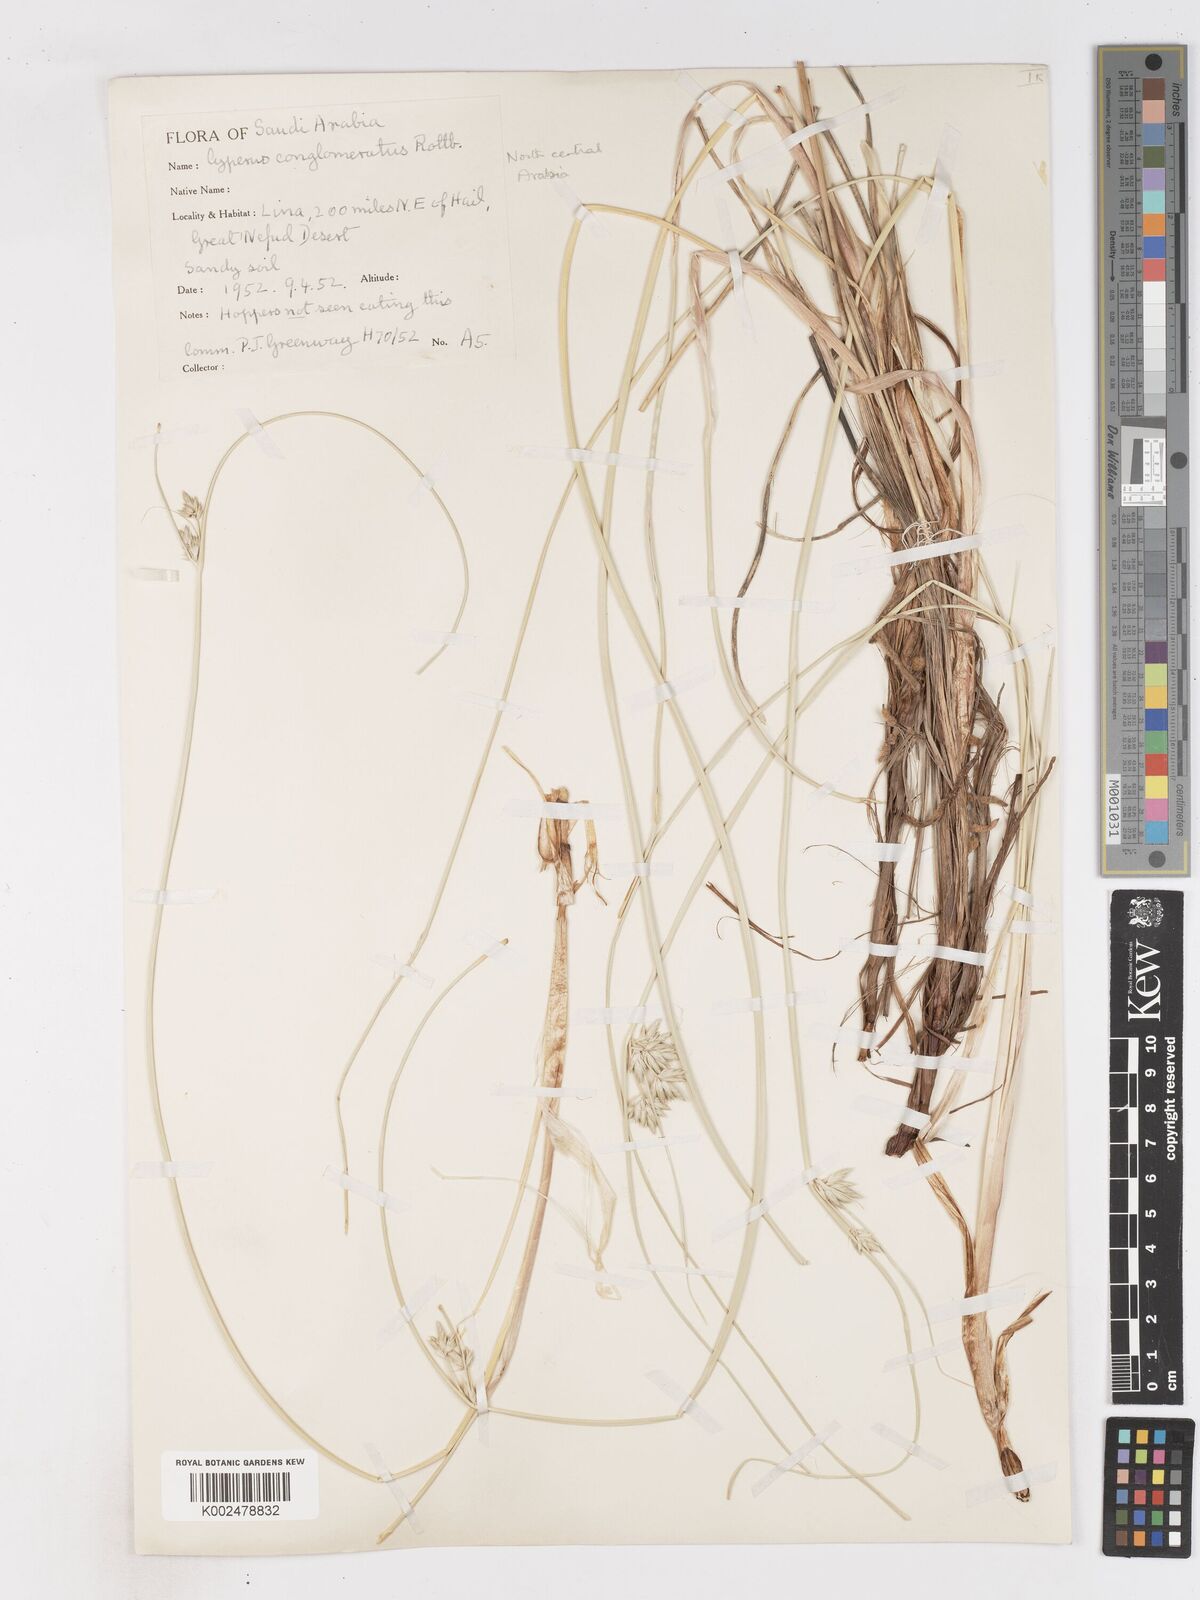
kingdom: Plantae
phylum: Tracheophyta
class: Liliopsida
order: Poales
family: Cyperaceae
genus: Cyperus
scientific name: Cyperus aucheri
